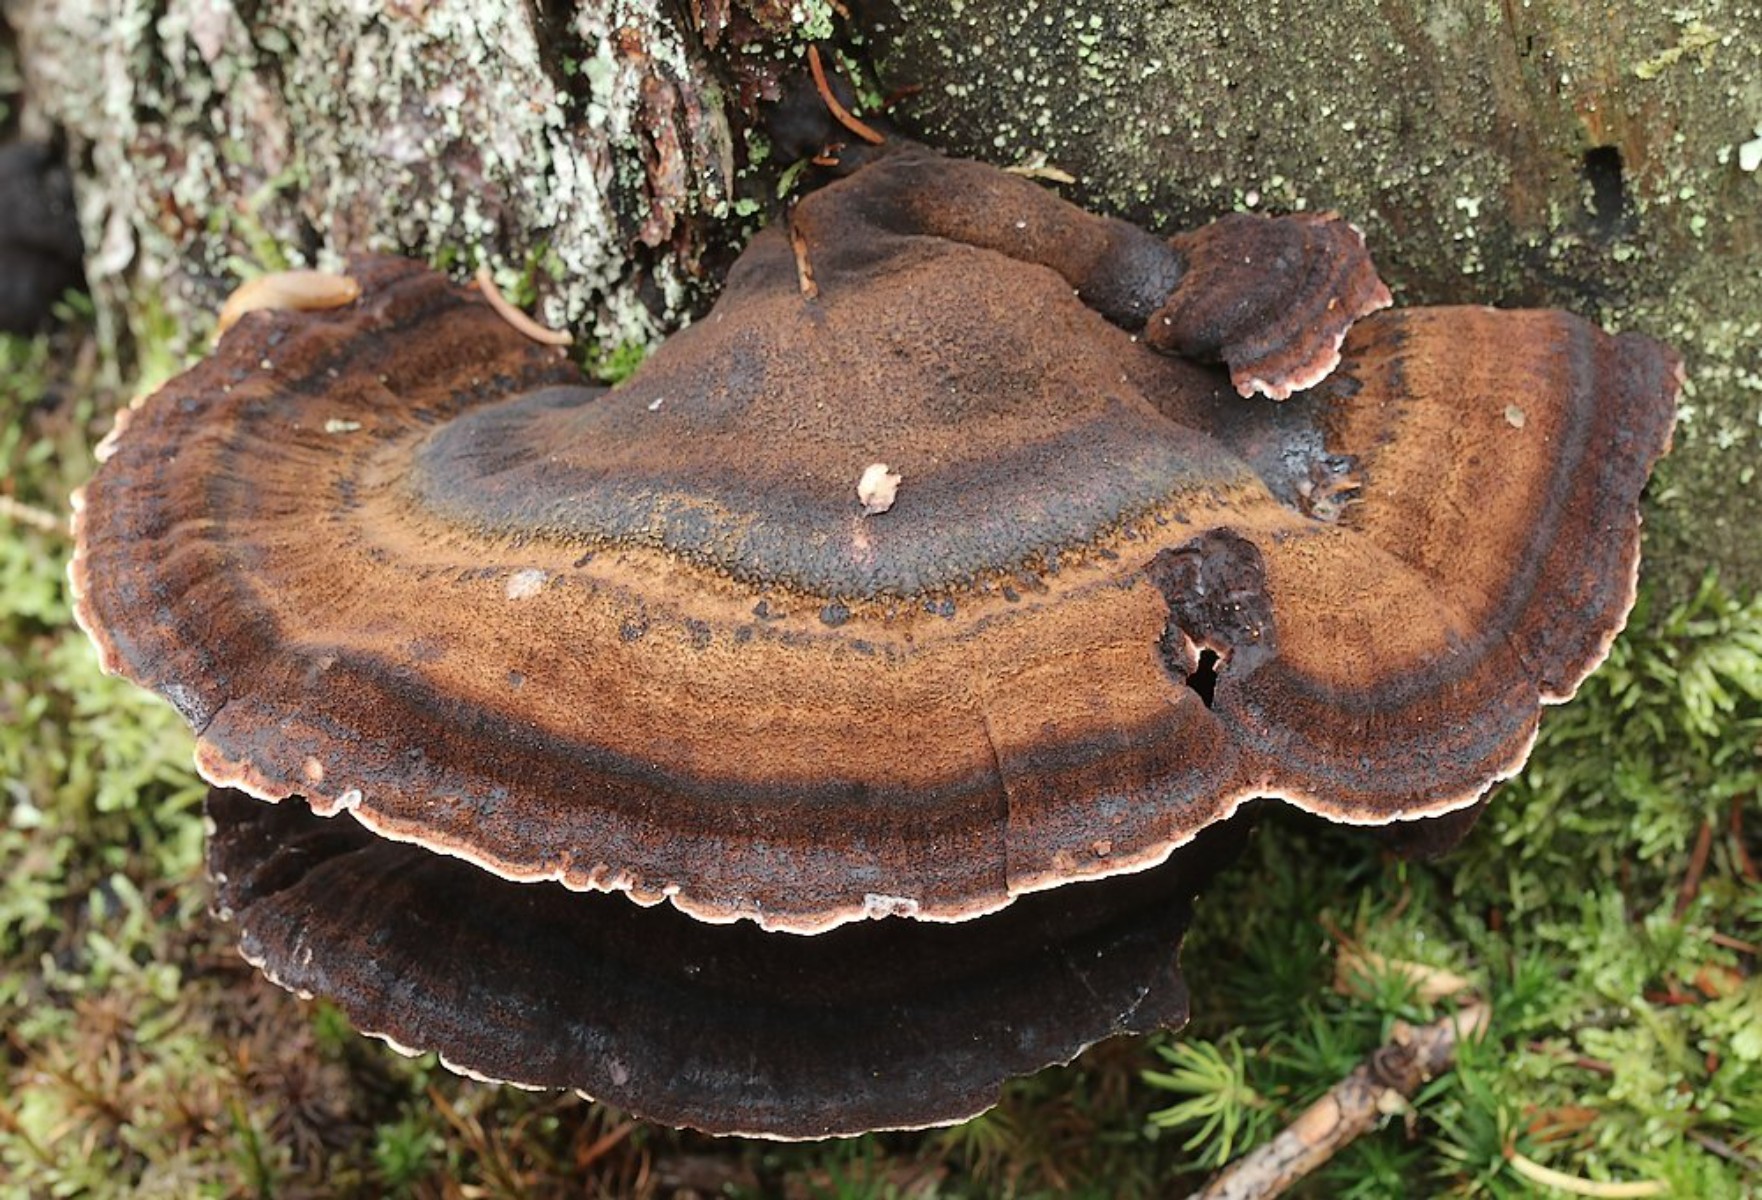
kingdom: Fungi
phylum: Basidiomycota
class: Agaricomycetes
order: Polyporales
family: Ischnodermataceae
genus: Ischnoderma
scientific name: Ischnoderma benzoinum
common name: gran-tjæreporesvamp
